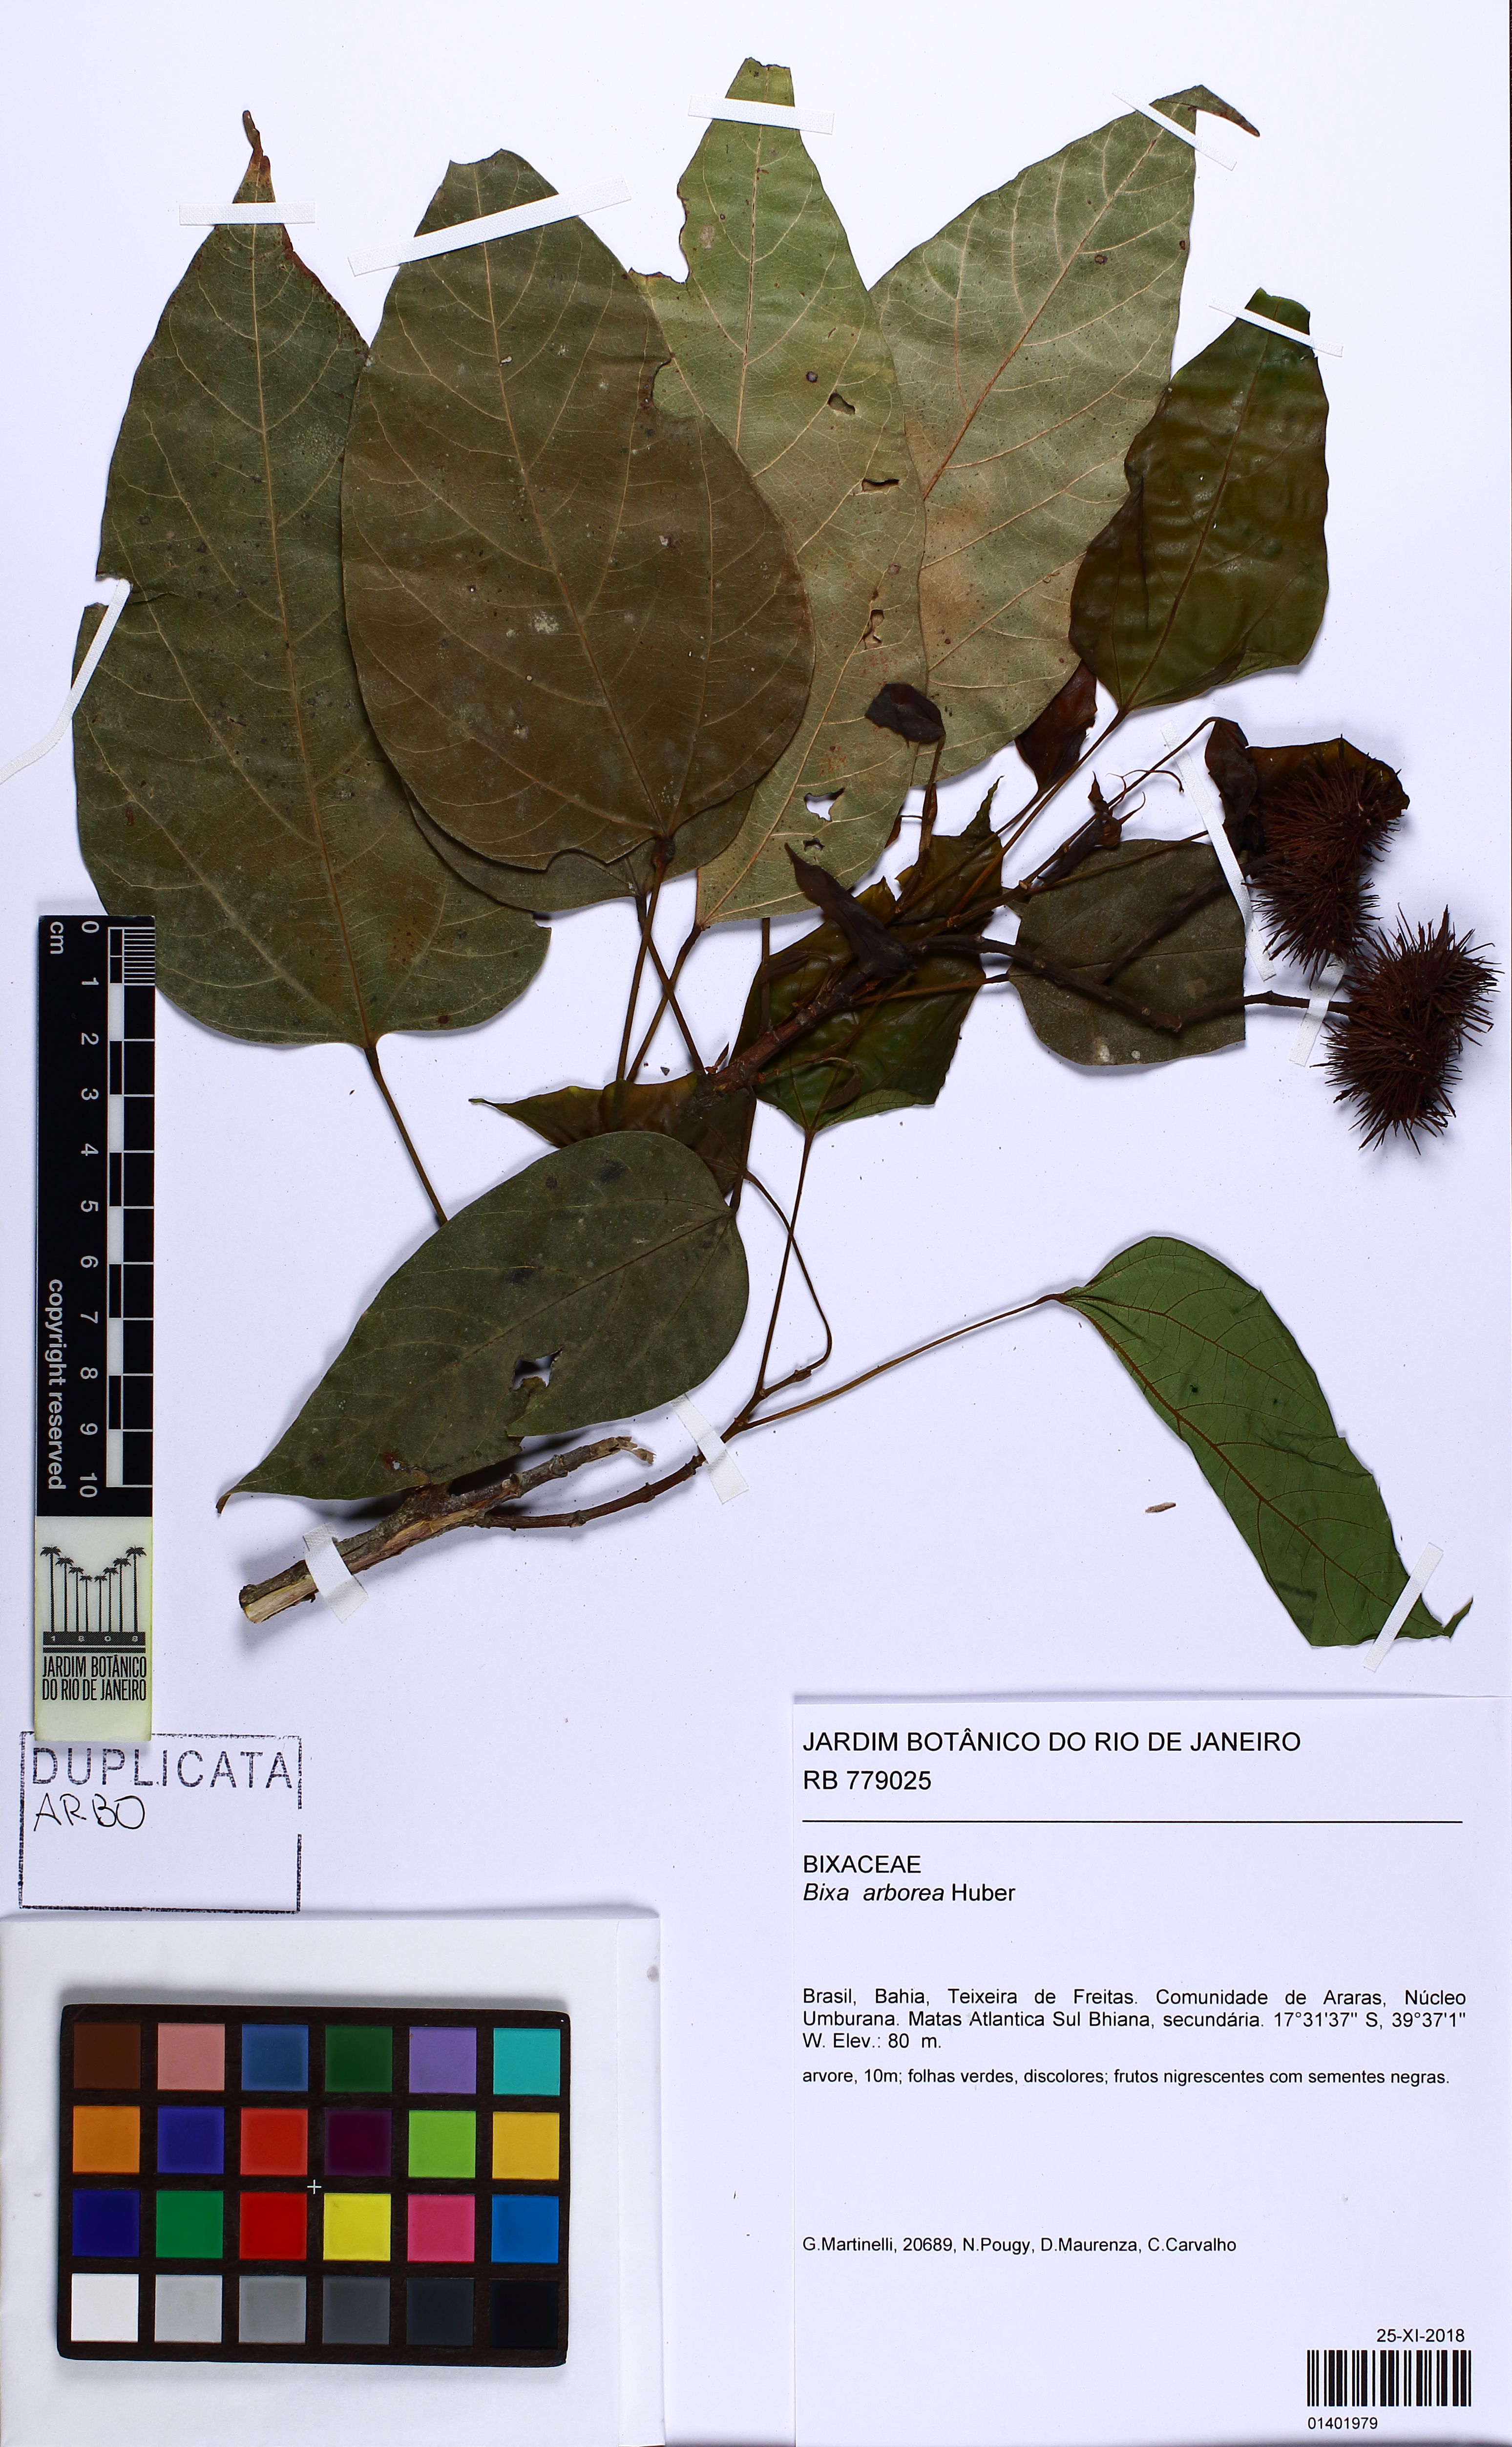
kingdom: Plantae
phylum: Tracheophyta
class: Magnoliopsida
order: Malvales
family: Bixaceae
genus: Bixa
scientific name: Bixa atlantica
